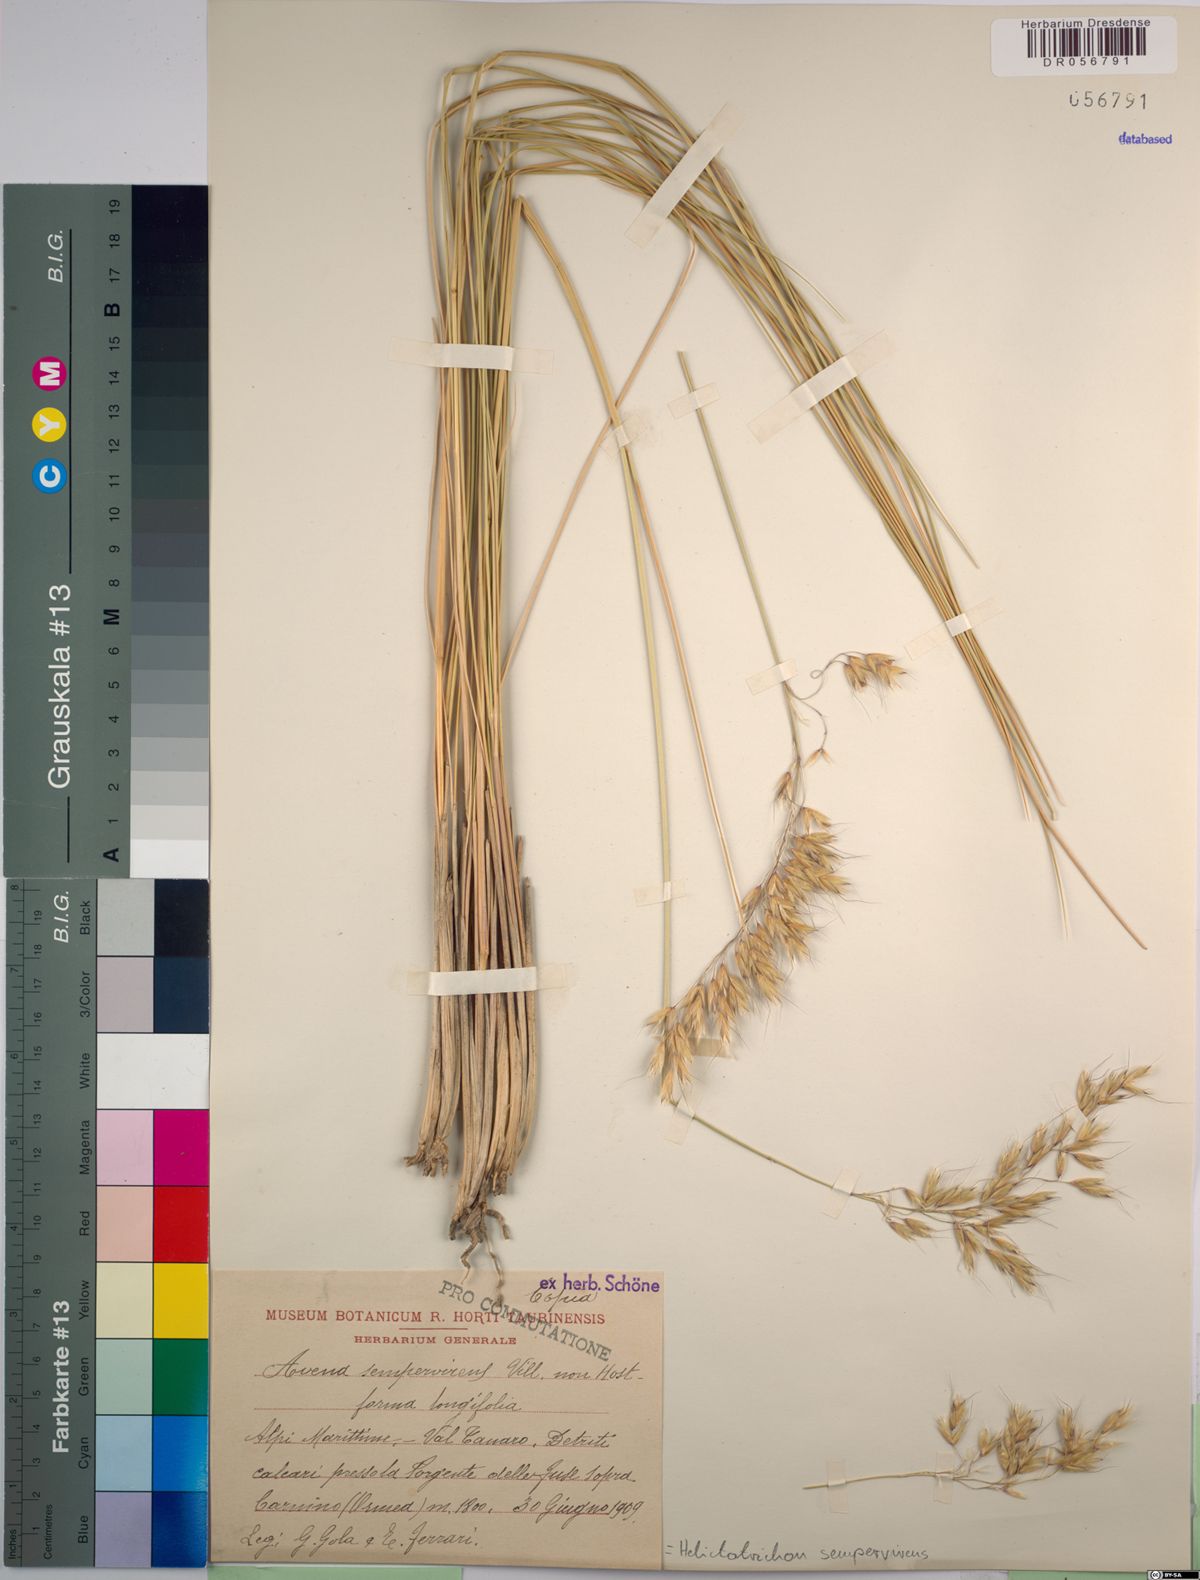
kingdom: Plantae
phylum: Tracheophyta
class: Liliopsida
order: Poales
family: Poaceae
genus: Helictotrichon
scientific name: Helictotrichon sempervirens
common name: Blue oat-grass
